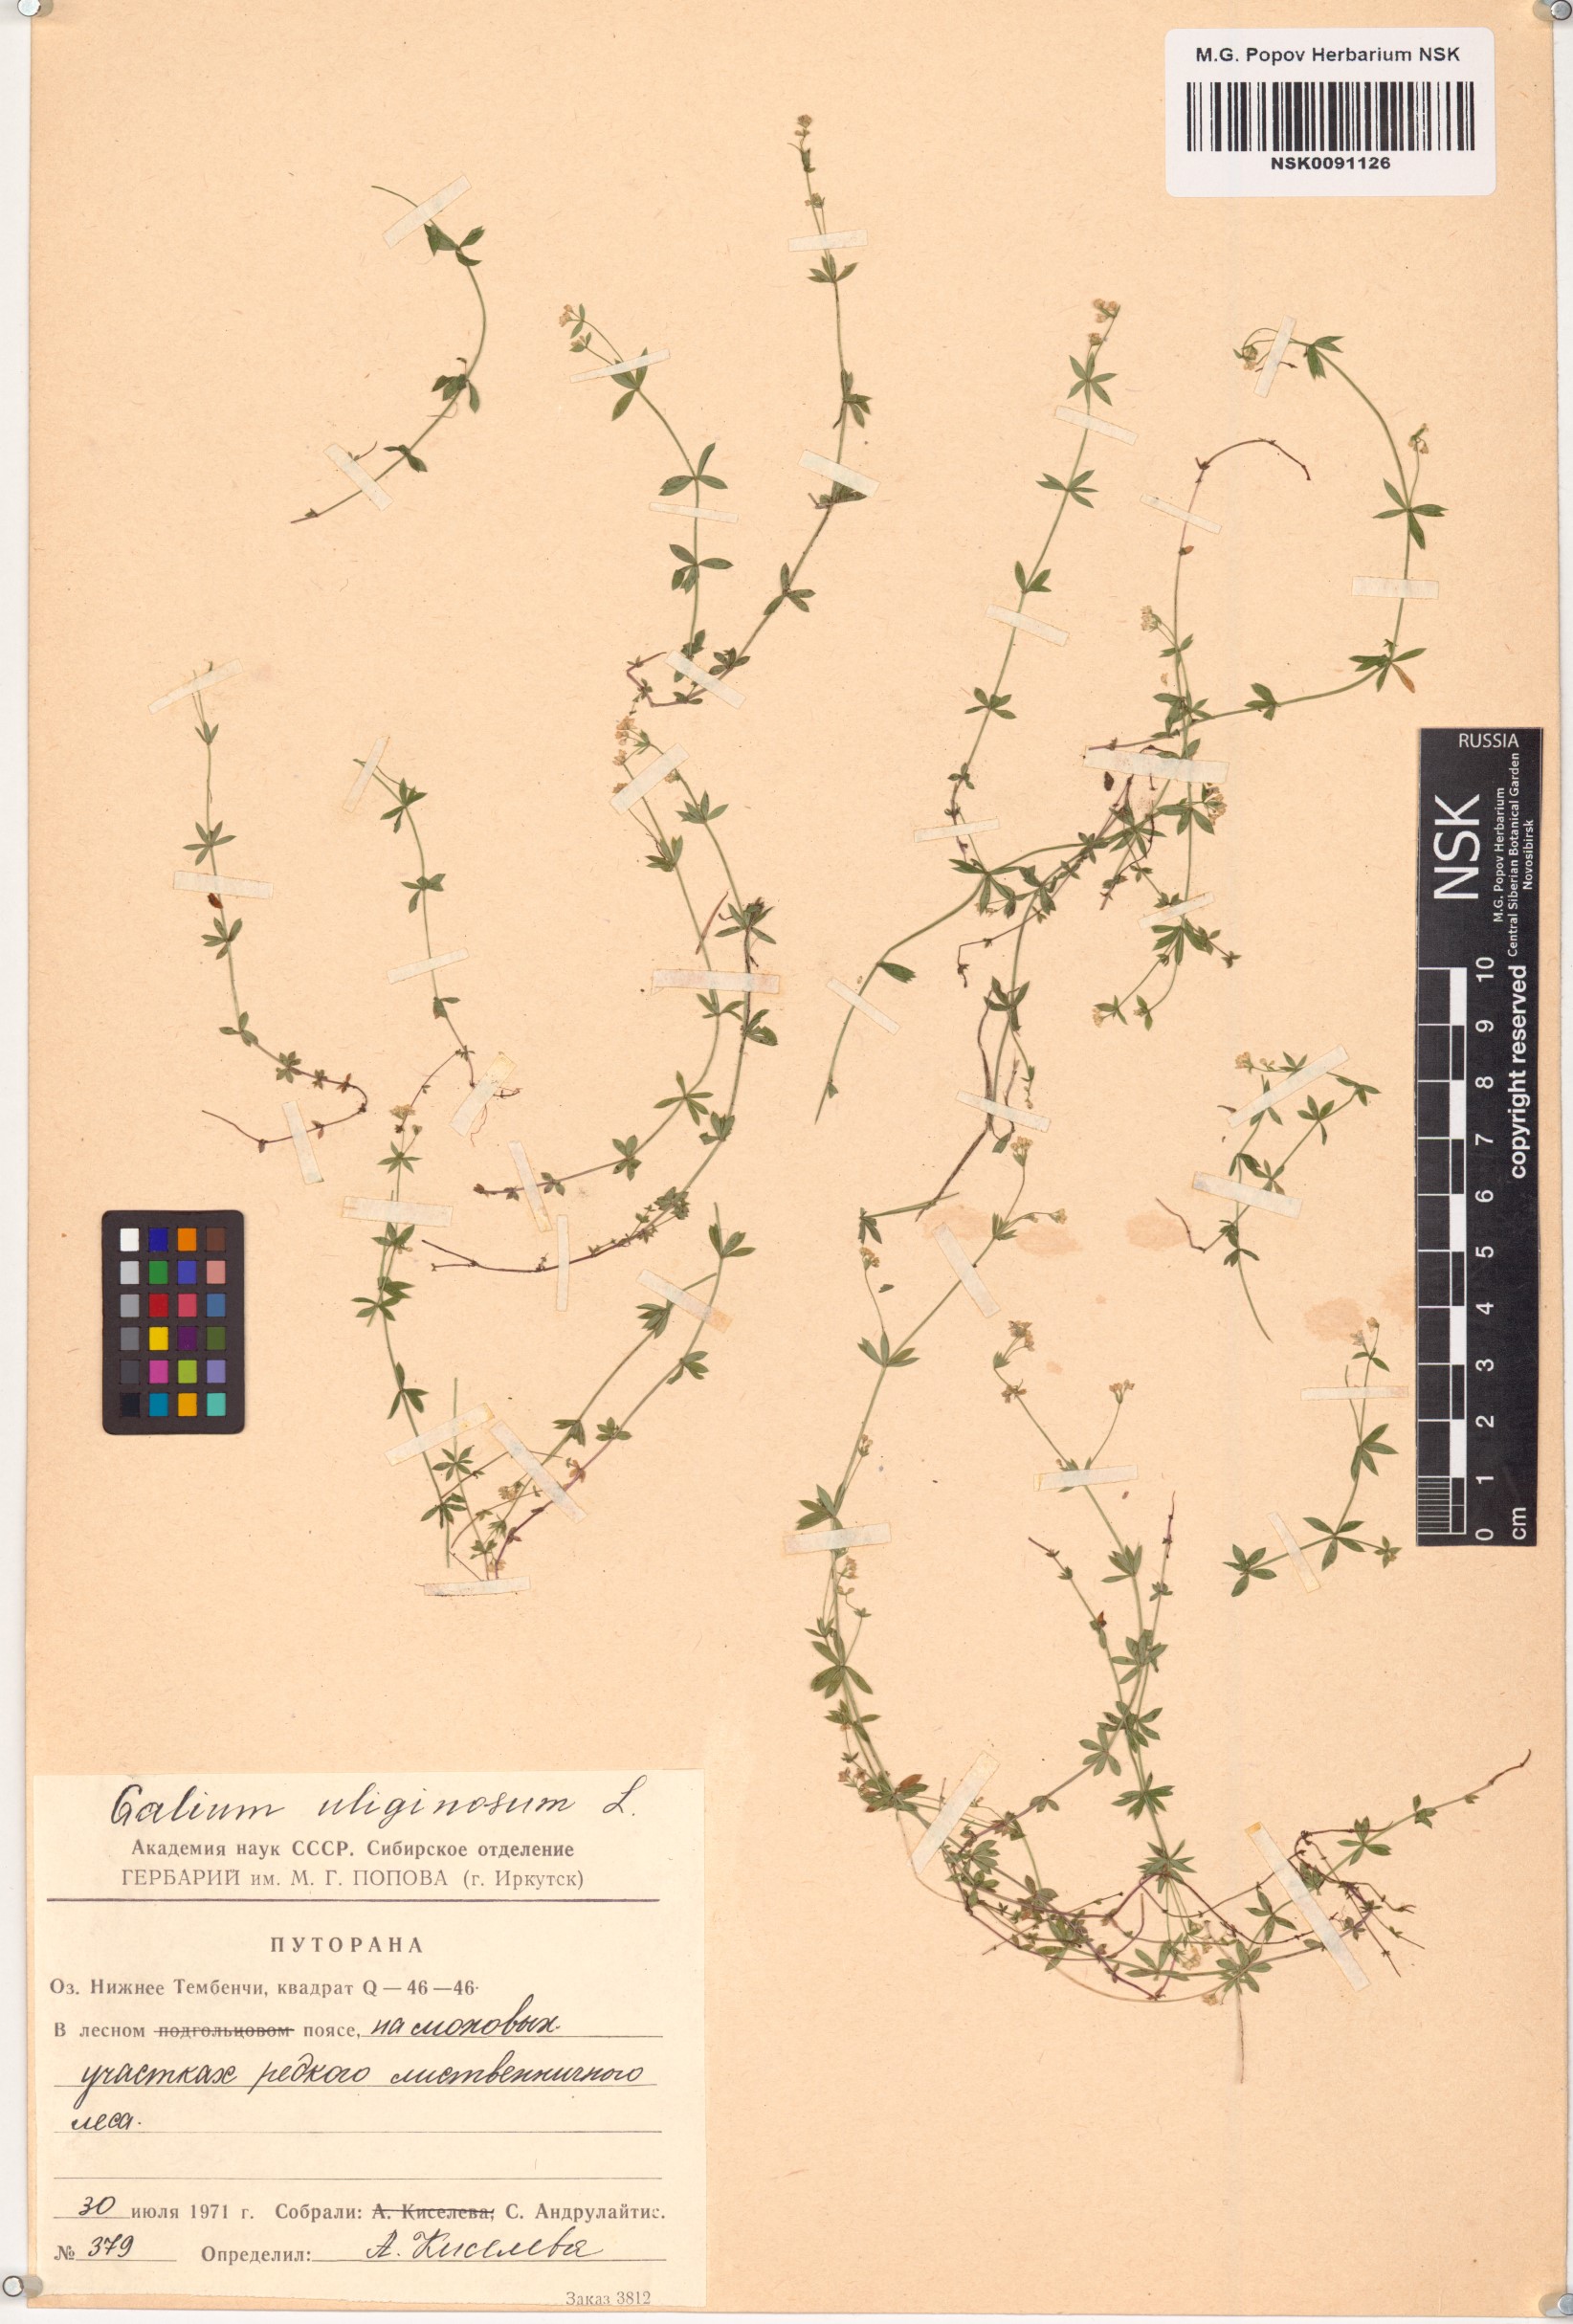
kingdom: Plantae
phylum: Tracheophyta
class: Magnoliopsida
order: Gentianales
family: Rubiaceae
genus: Galium
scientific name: Galium uliginosum
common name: Fen bedstraw
